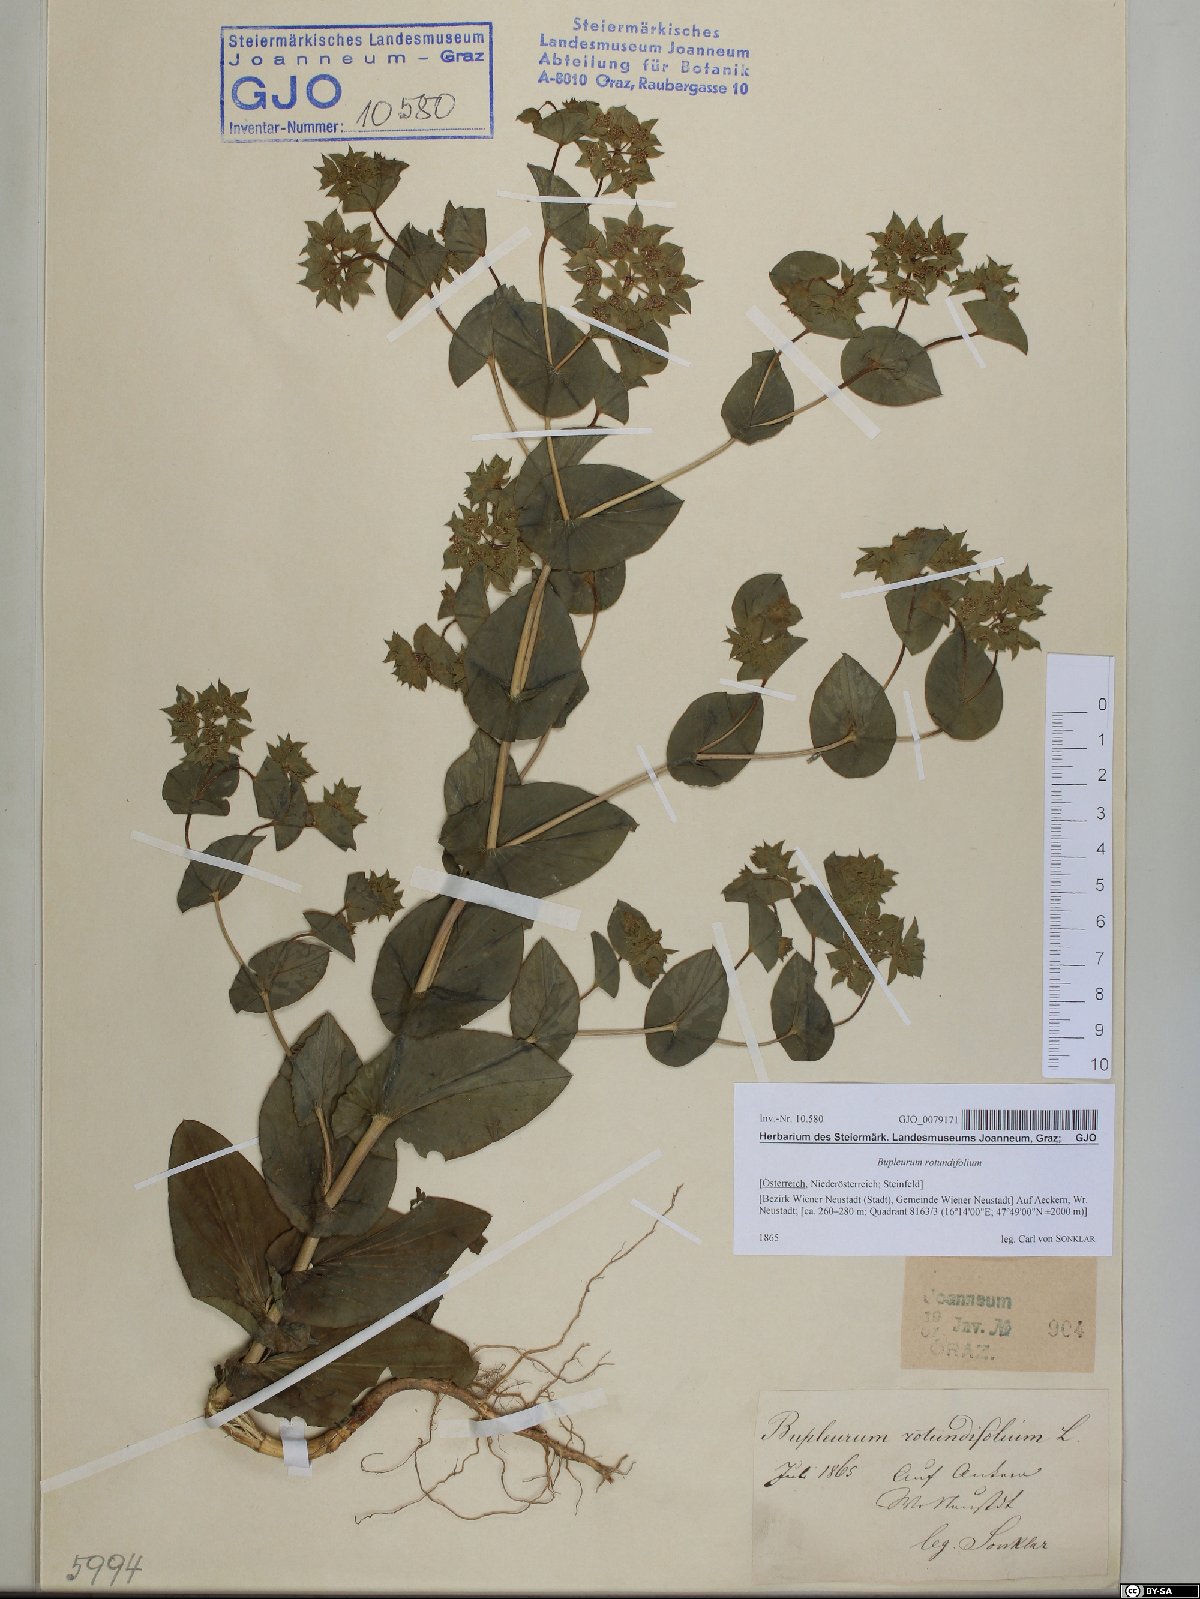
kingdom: Plantae
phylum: Tracheophyta
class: Magnoliopsida
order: Apiales
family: Apiaceae
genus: Bupleurum
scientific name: Bupleurum rotundifolium
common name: Thorow-wax
